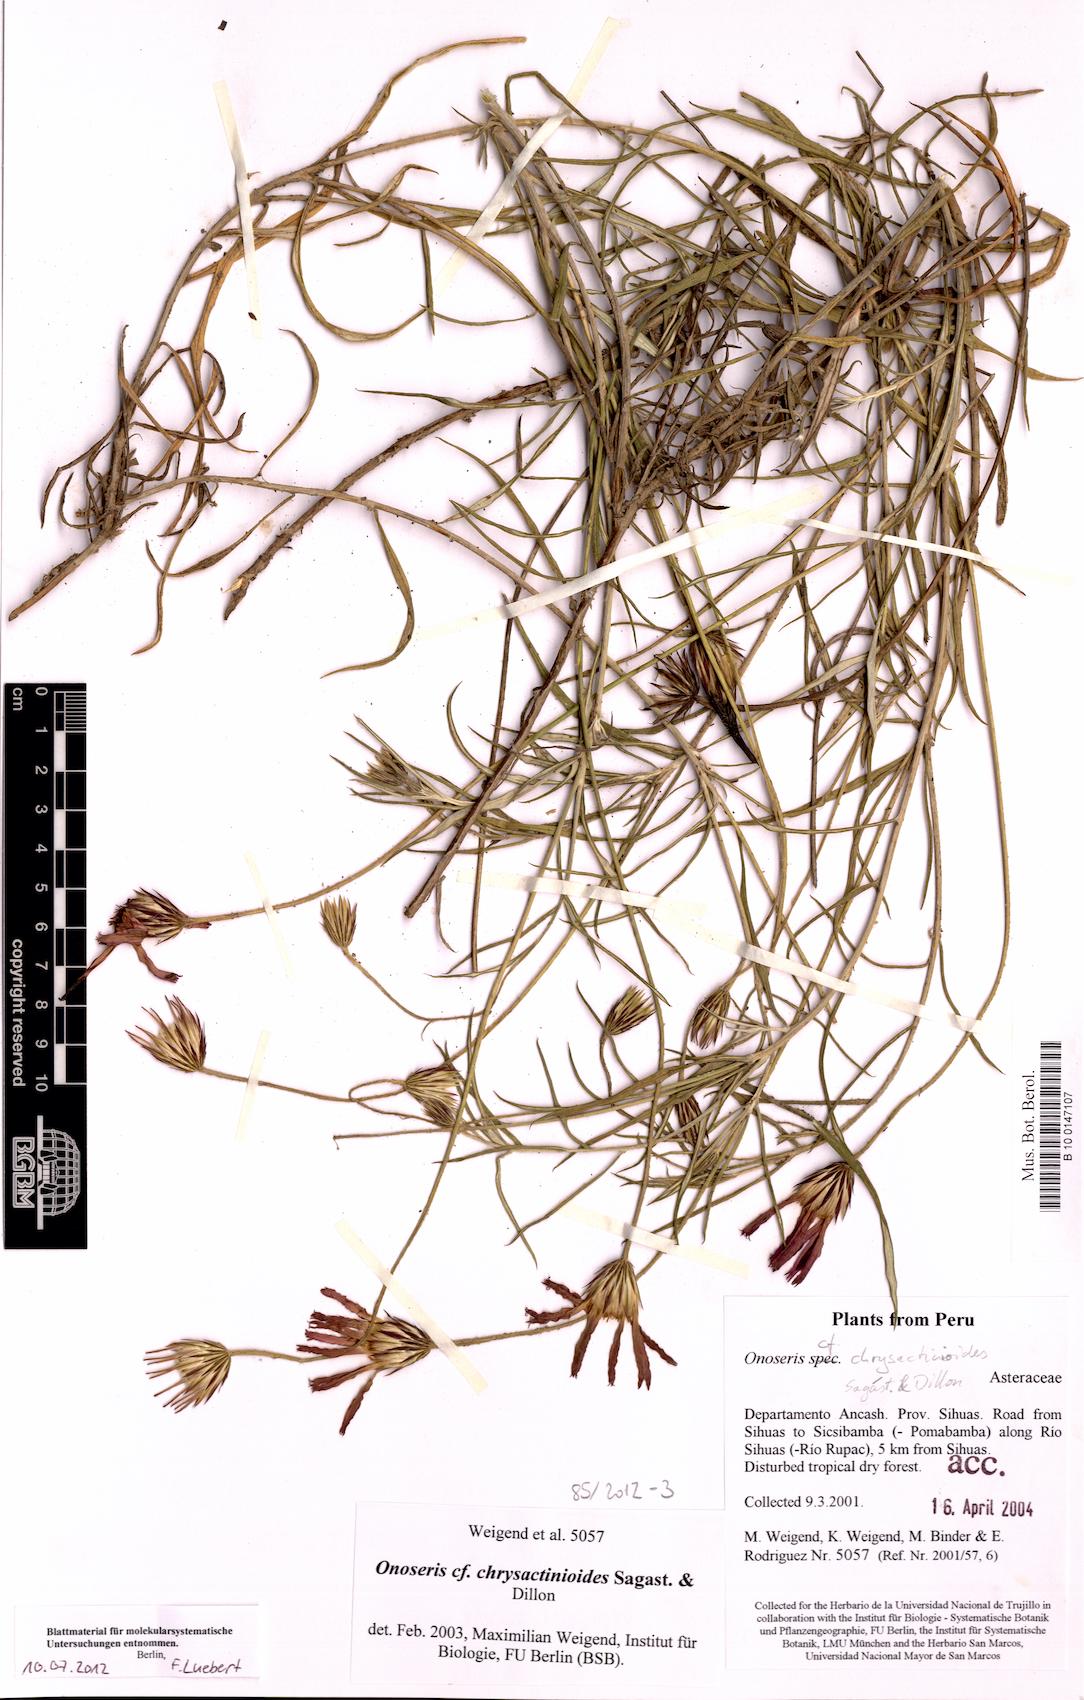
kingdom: Plantae
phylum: Tracheophyta
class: Magnoliopsida
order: Asterales
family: Asteraceae
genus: Onoseris
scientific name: Onoseris chrysactinioides
